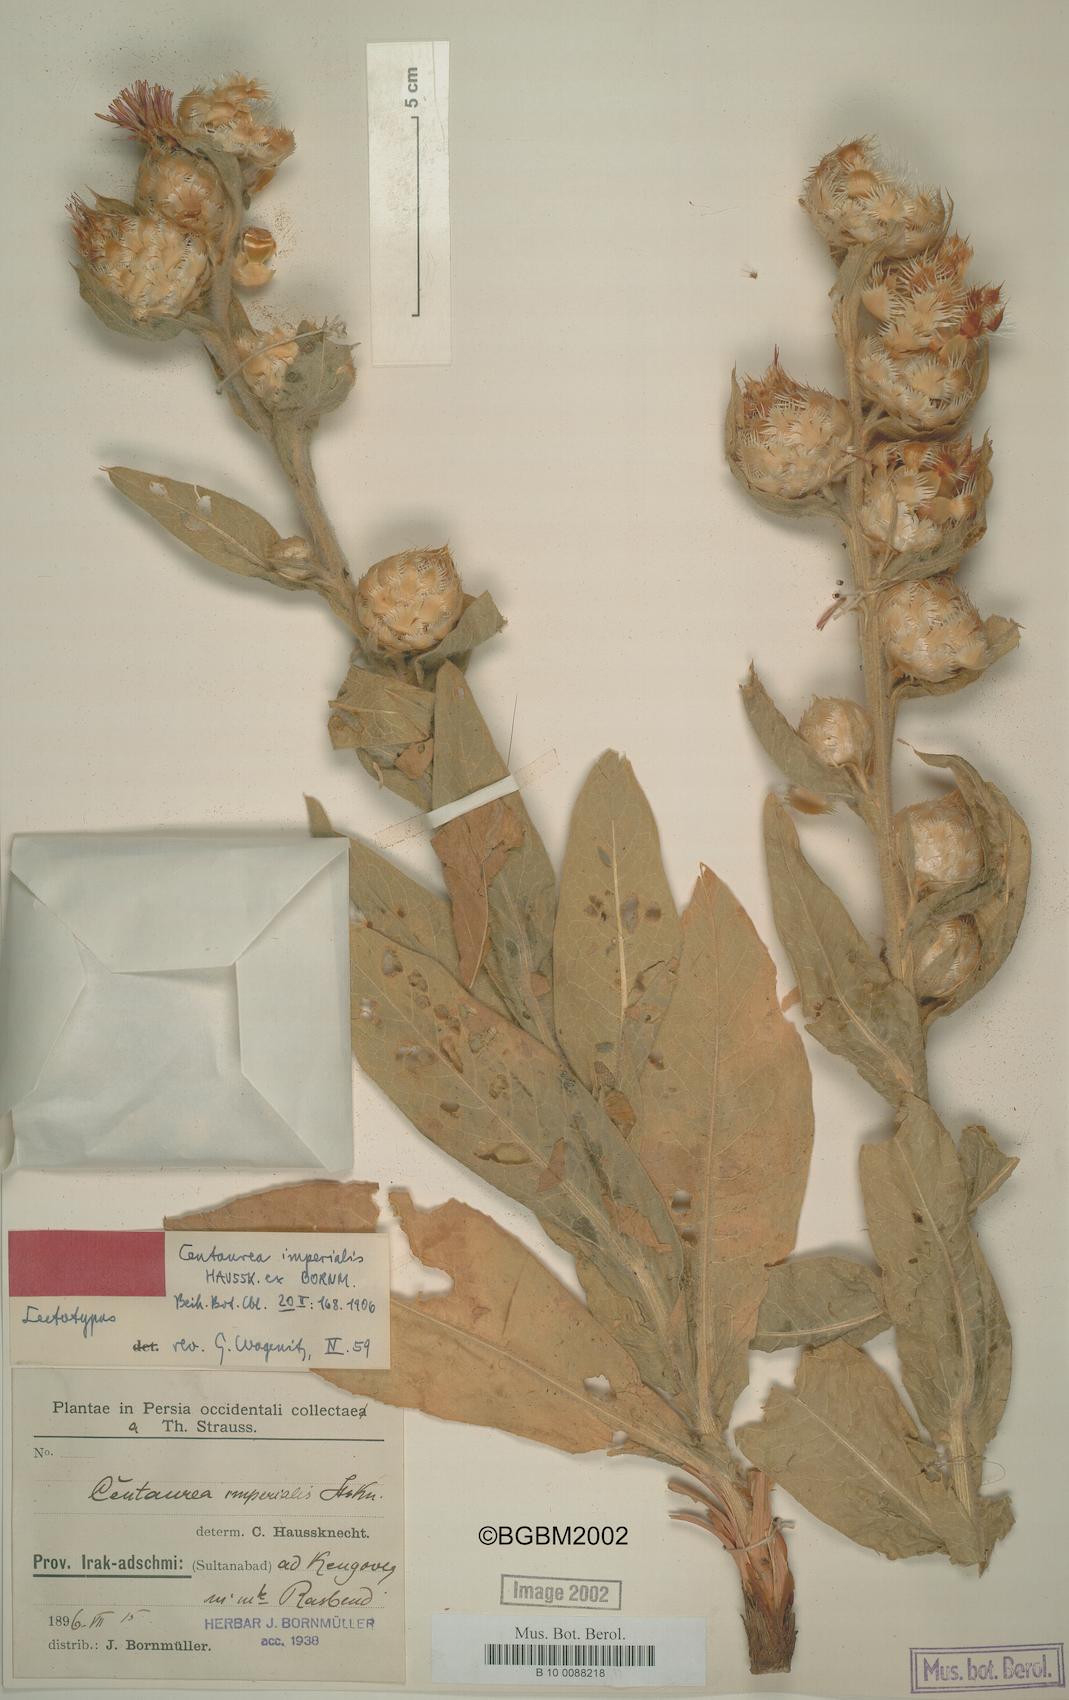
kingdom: Plantae
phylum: Tracheophyta
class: Magnoliopsida
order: Asterales
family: Asteraceae
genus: Centaurea
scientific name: Centaurea imperialis
